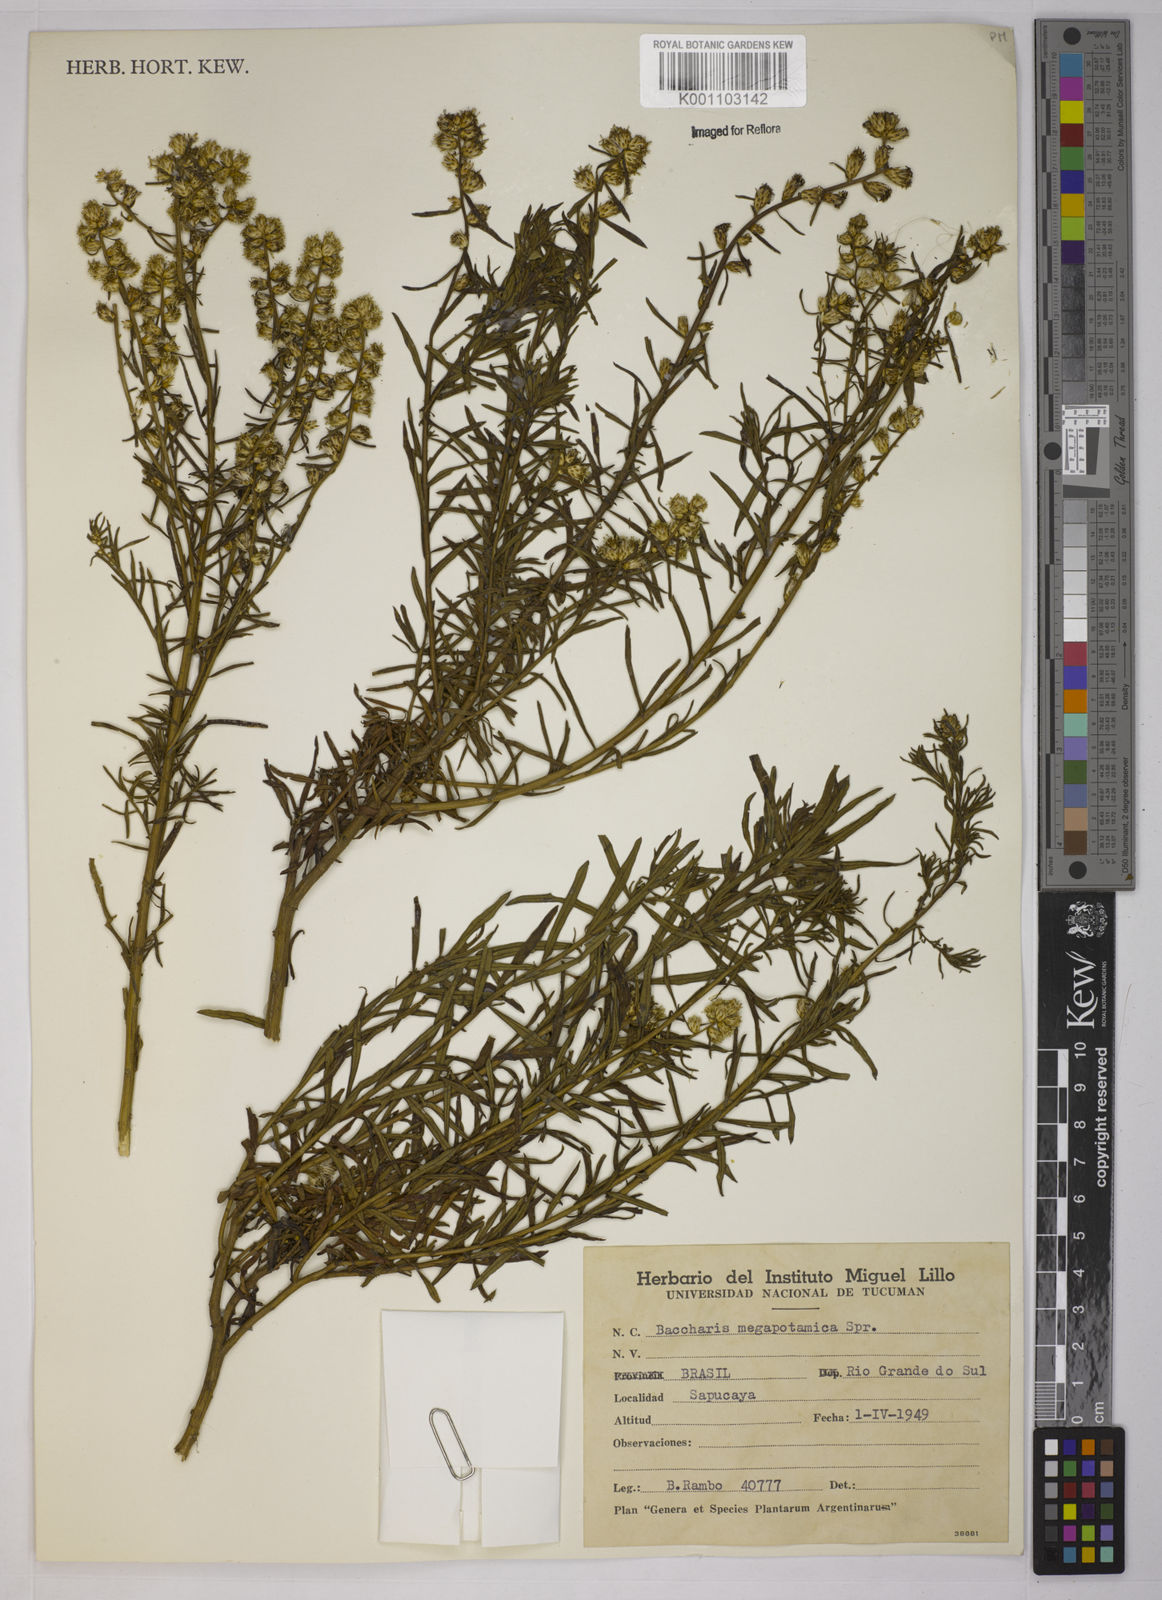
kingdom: Plantae
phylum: Tracheophyta
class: Magnoliopsida
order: Asterales
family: Asteraceae
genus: Baccharis
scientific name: Baccharis megapotamica
